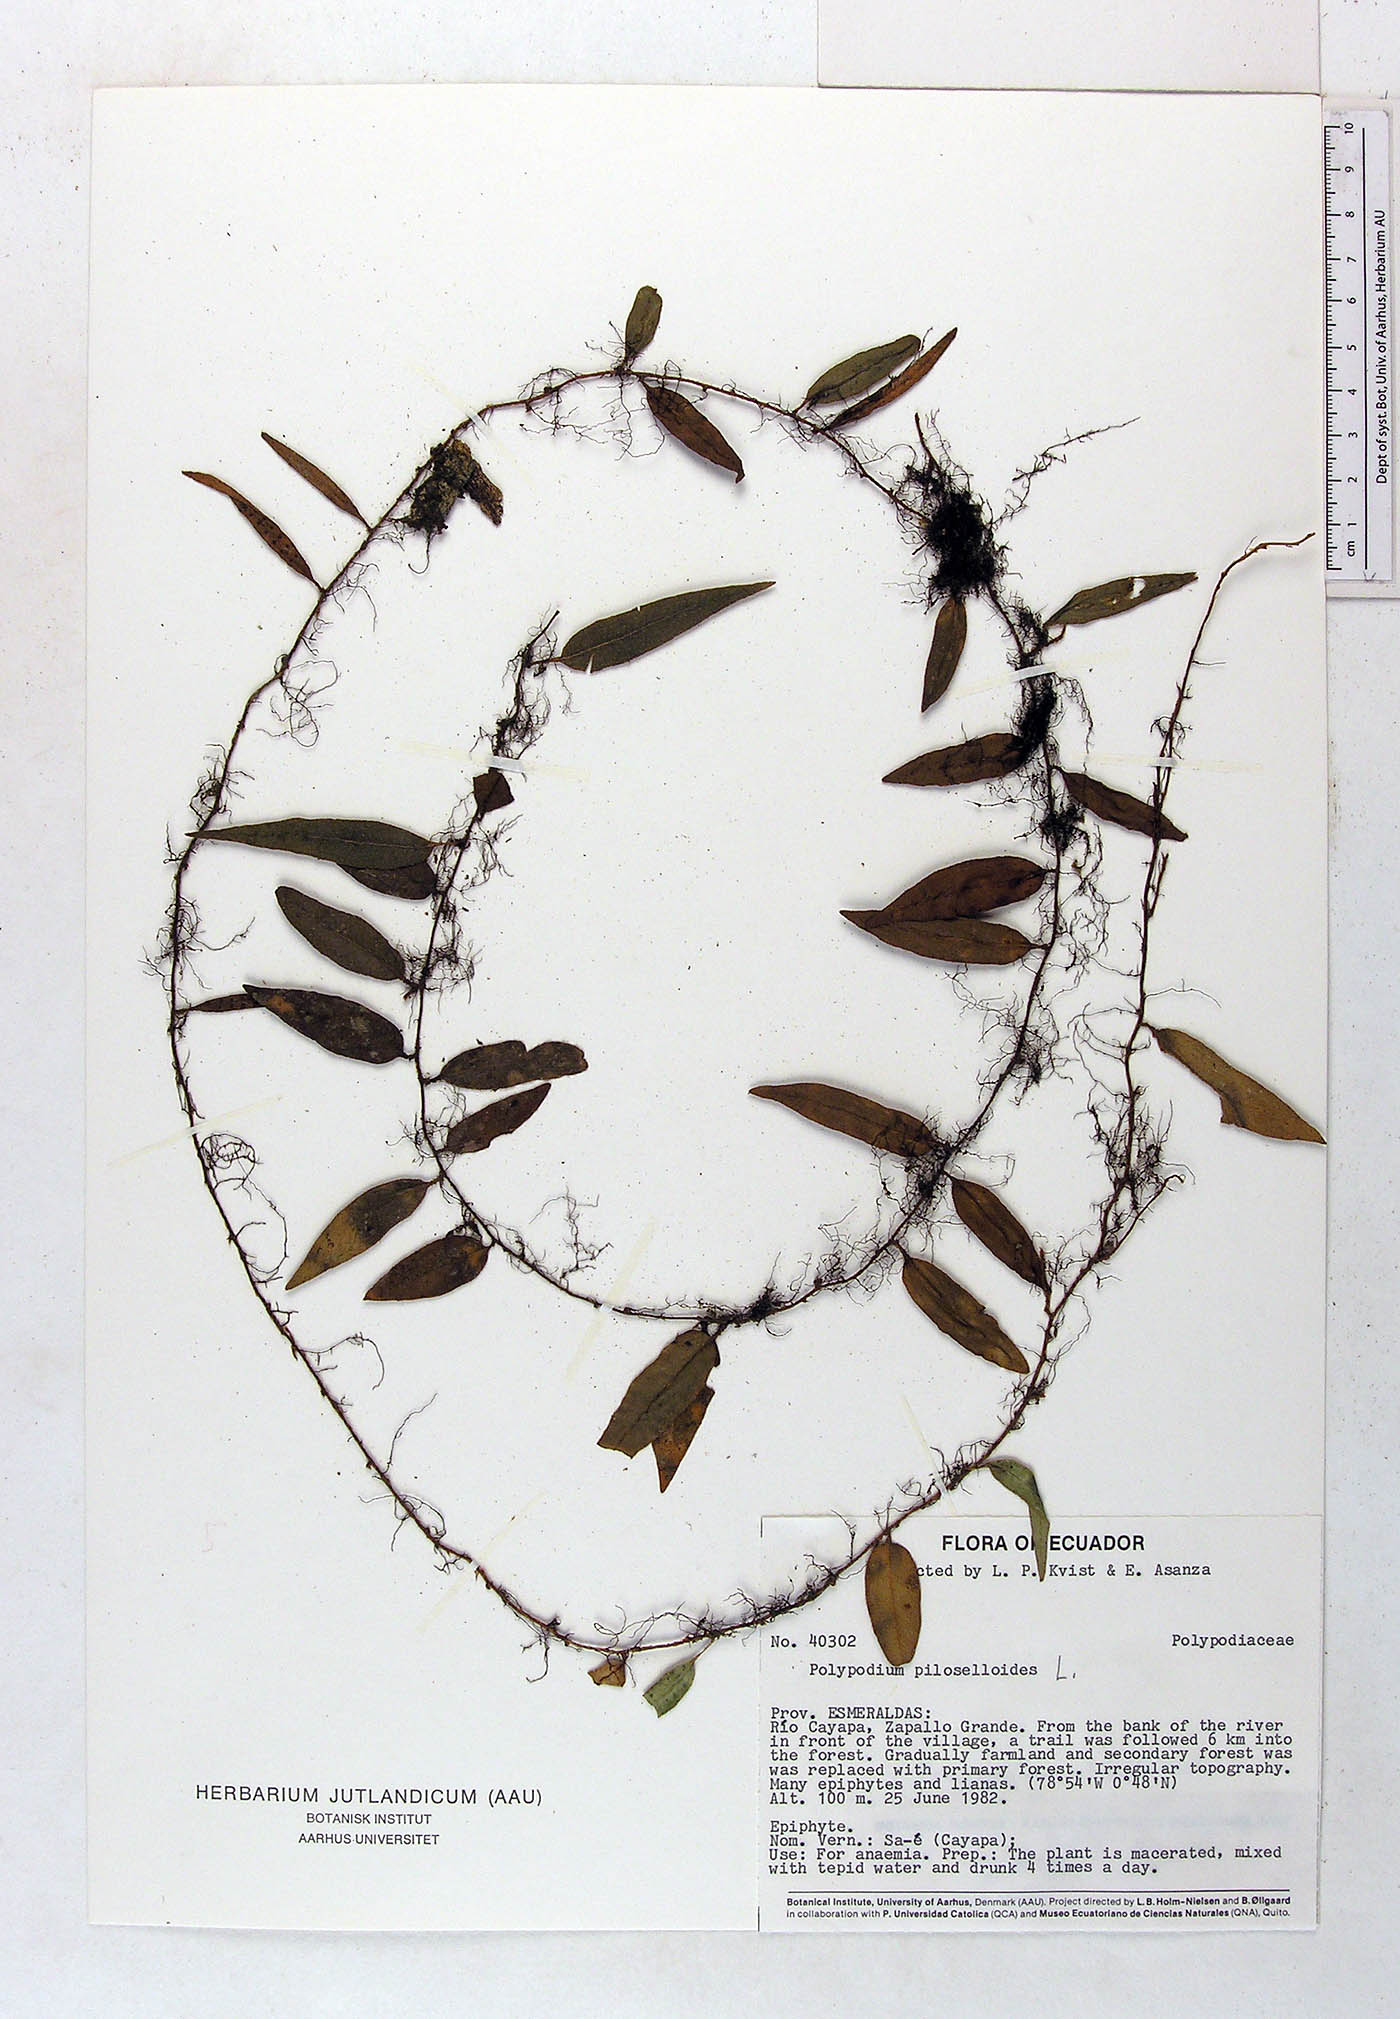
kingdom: Plantae
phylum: Tracheophyta
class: Polypodiopsida
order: Polypodiales
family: Polypodiaceae
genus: Microgramma
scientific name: Microgramma piloselloides
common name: Hairy snakefern
